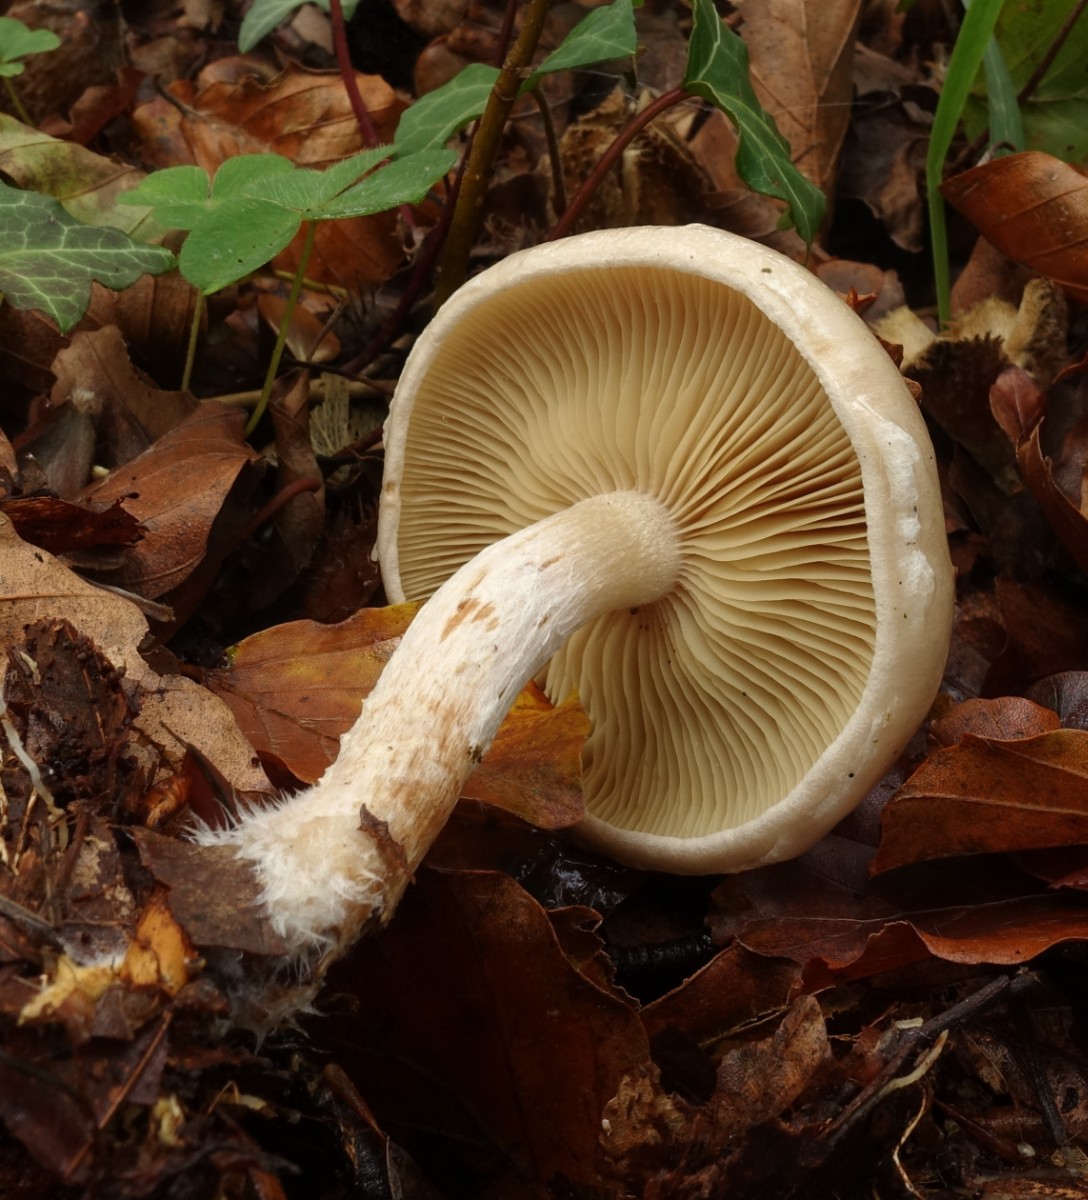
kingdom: Fungi
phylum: Basidiomycota
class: Agaricomycetes
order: Agaricales
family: Strophariaceae
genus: Pholiota
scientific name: Pholiota lenta
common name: løv-skælhat
